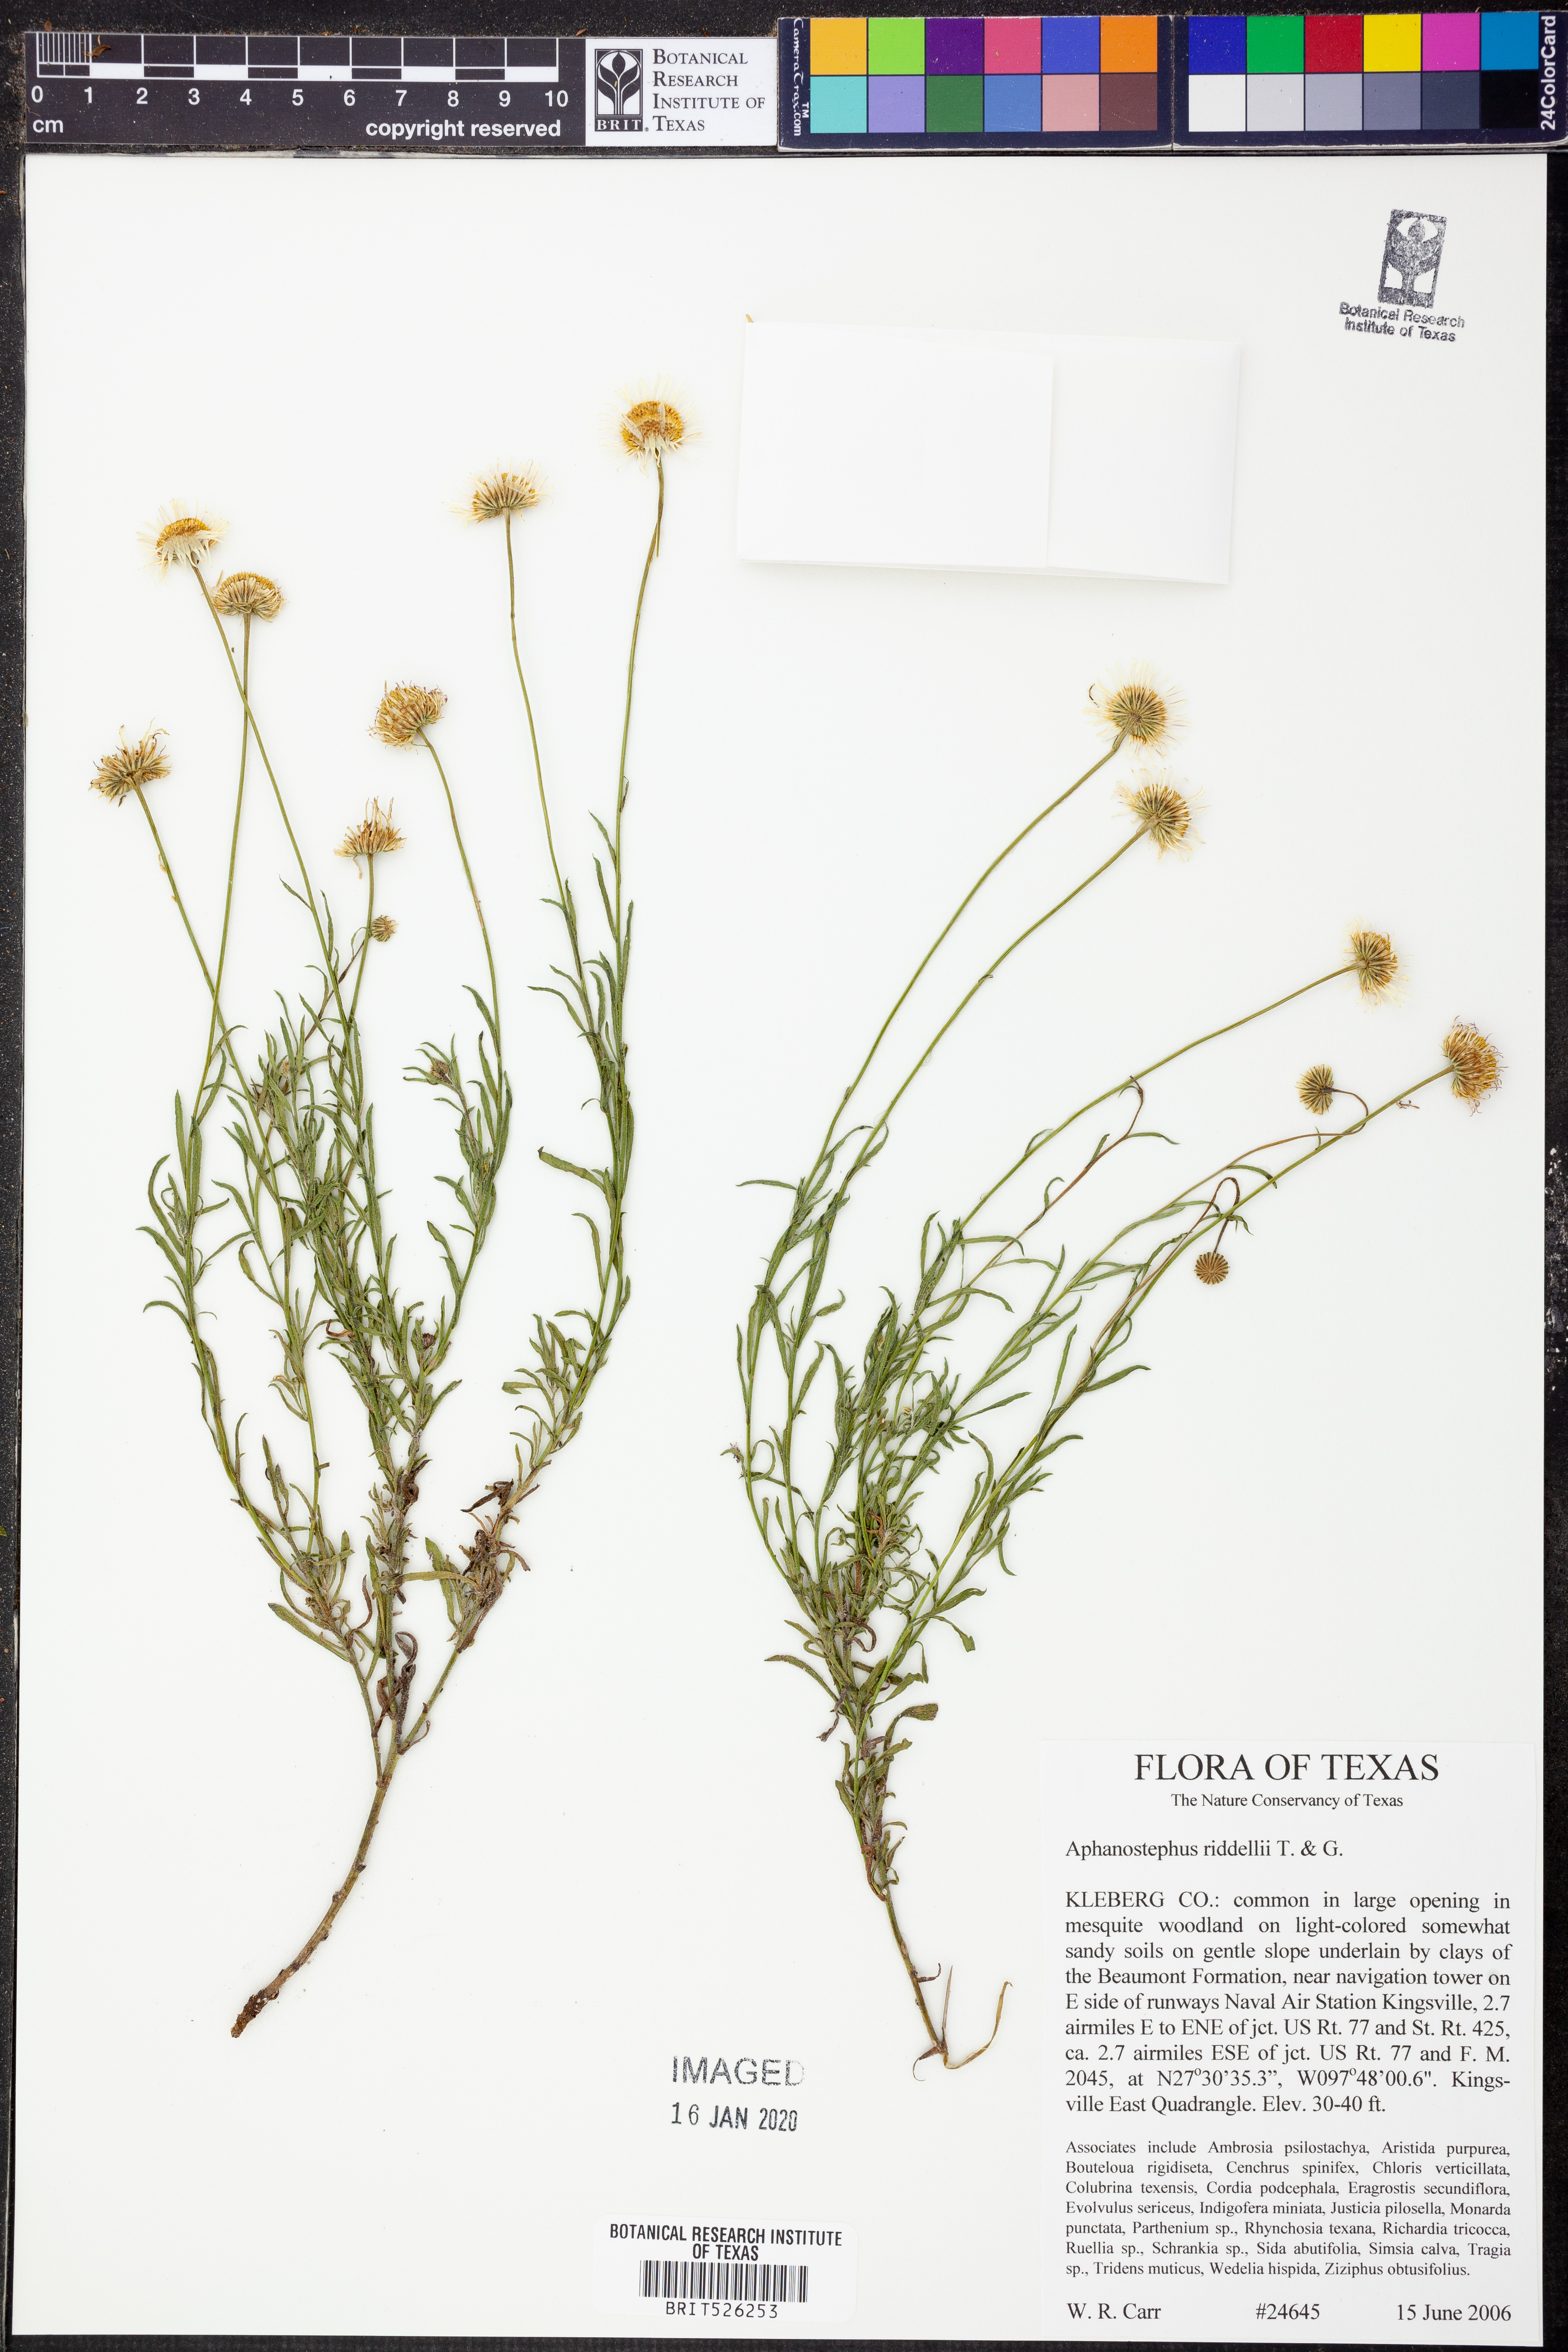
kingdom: Plantae
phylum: Tracheophyta
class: Magnoliopsida
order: Asterales
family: Asteraceae
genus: Aphanostephus
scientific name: Aphanostephus riddellii
